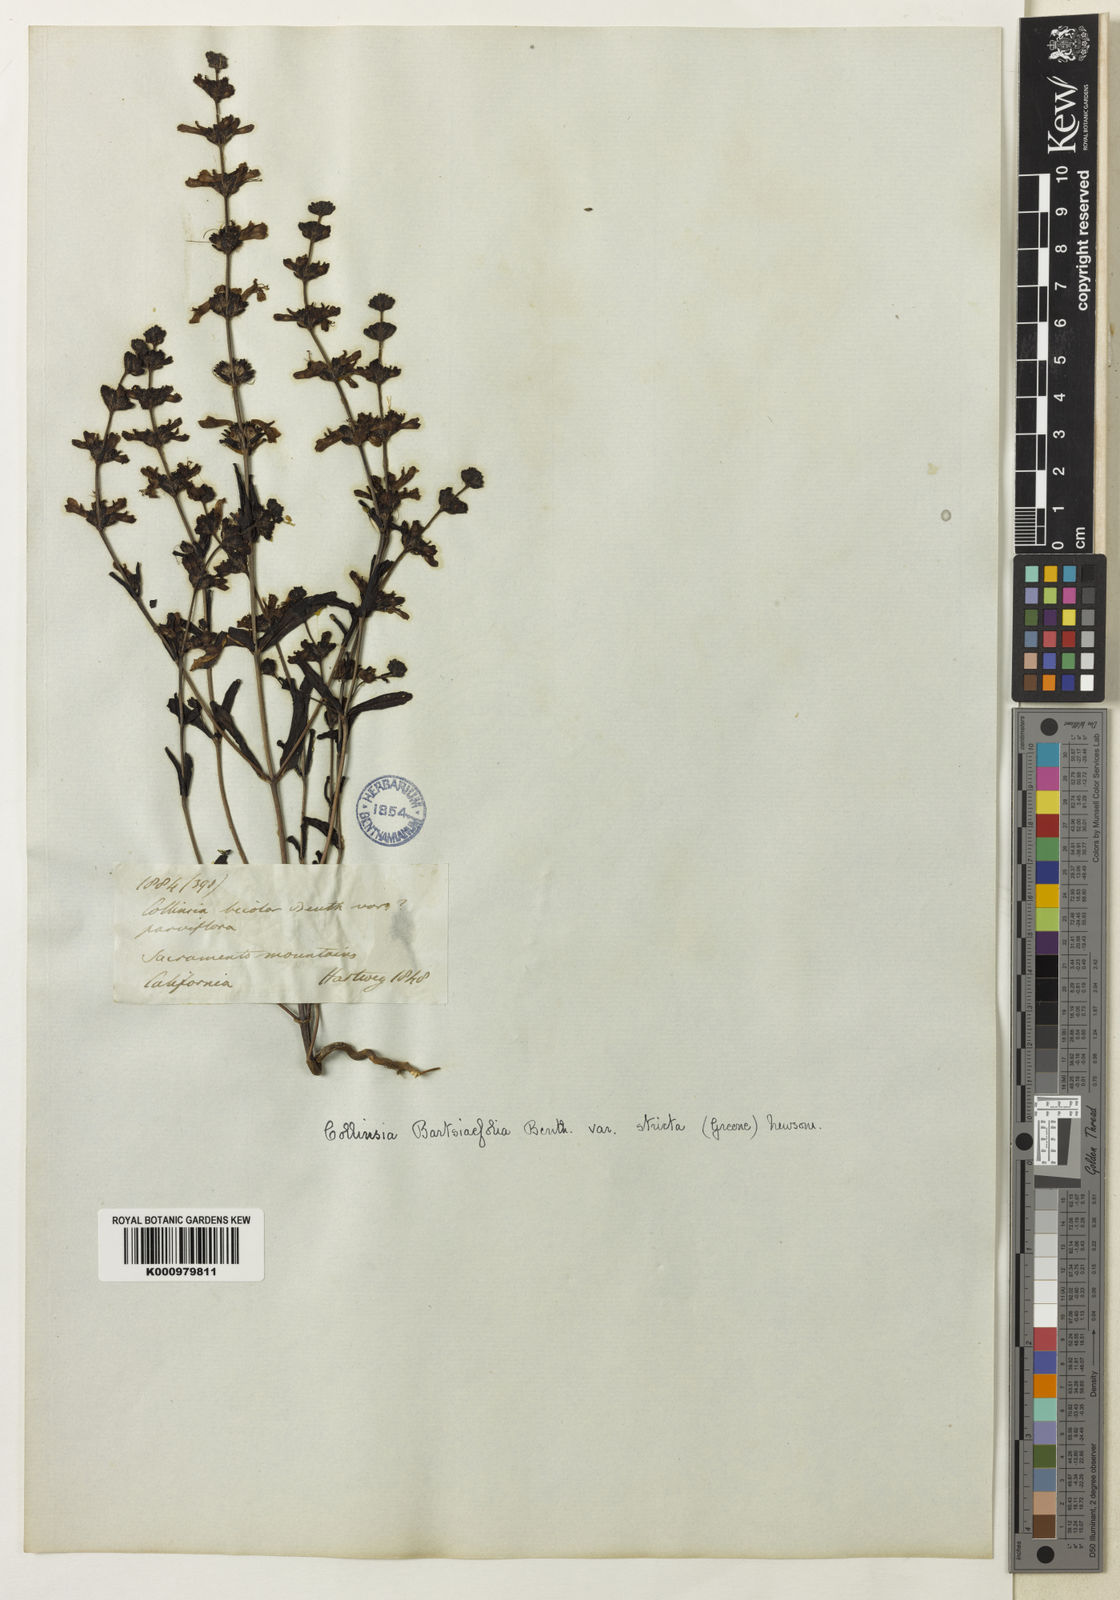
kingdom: Plantae
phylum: Tracheophyta
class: Magnoliopsida
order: Lamiales
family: Plantaginaceae
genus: Collinsia
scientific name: Collinsia bartsiifolia
